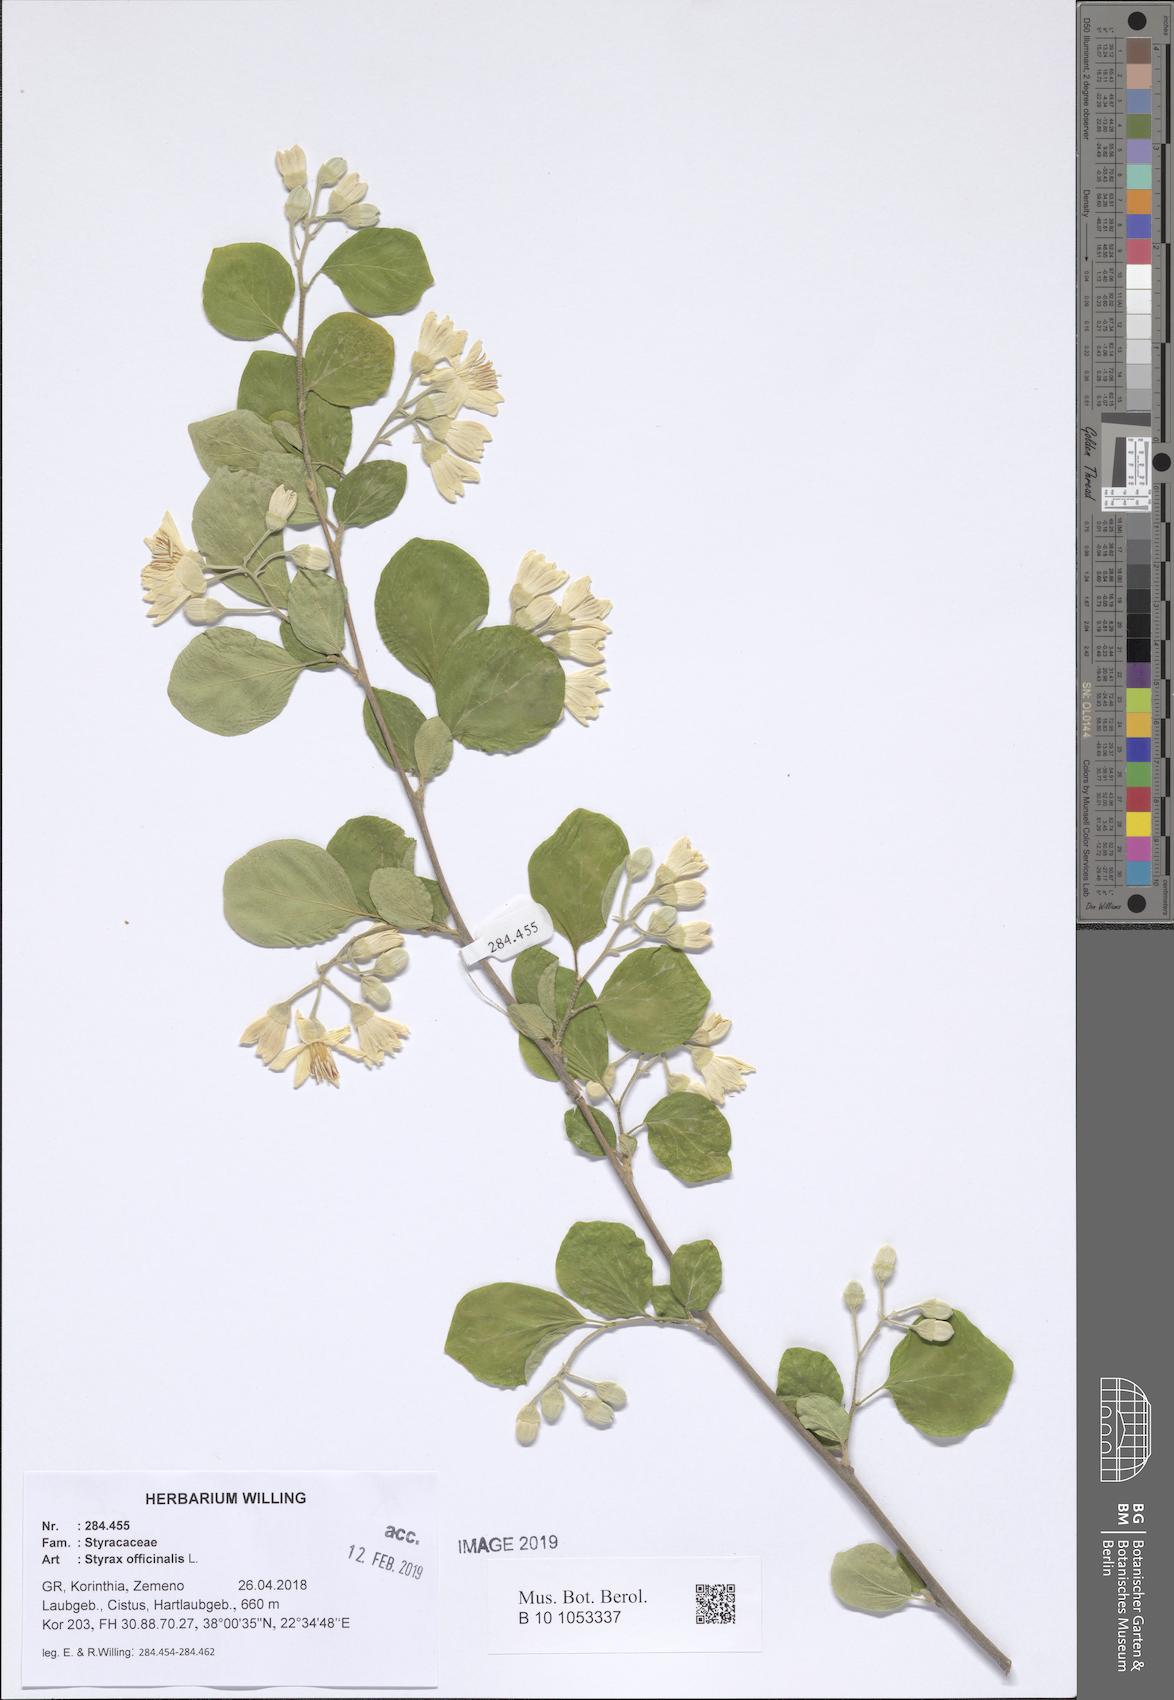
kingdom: Plantae
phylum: Tracheophyta
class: Magnoliopsida
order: Ericales
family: Styracaceae
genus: Styrax
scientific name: Styrax officinalis
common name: Storax
